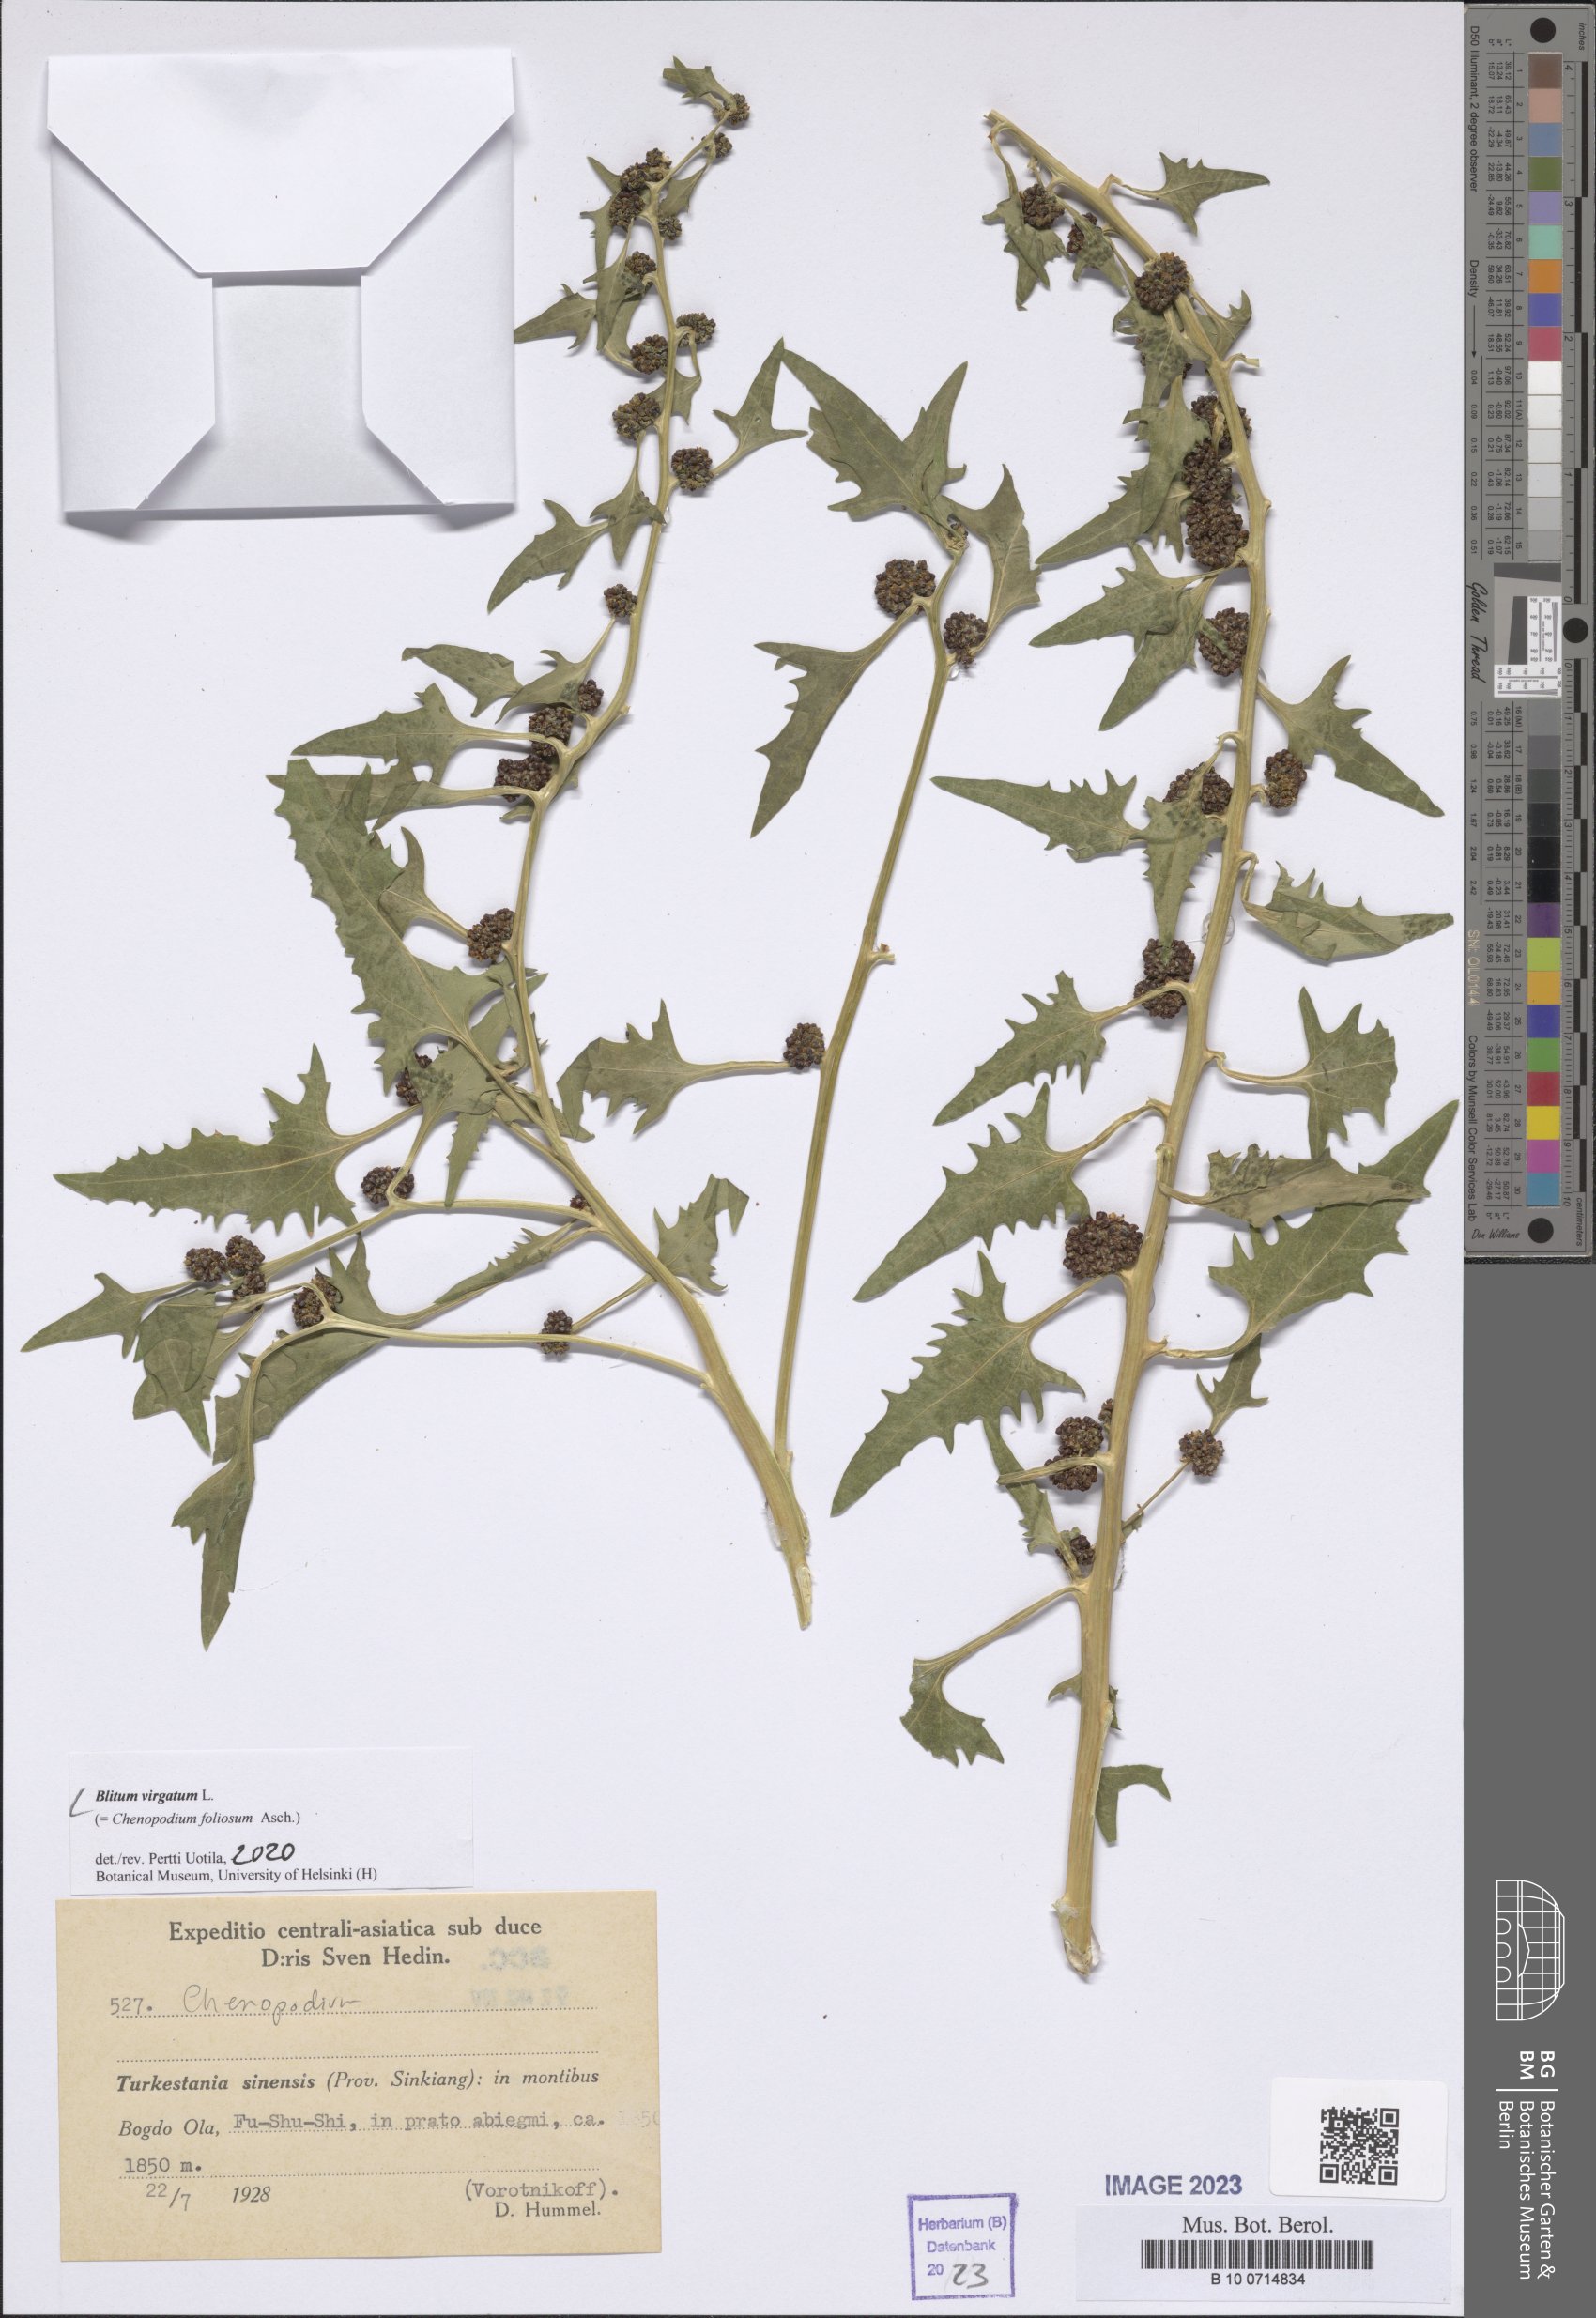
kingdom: Plantae
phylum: Tracheophyta
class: Magnoliopsida
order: Caryophyllales
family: Amaranthaceae
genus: Blitum
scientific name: Blitum virgatum
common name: Strawberry goosefoot
